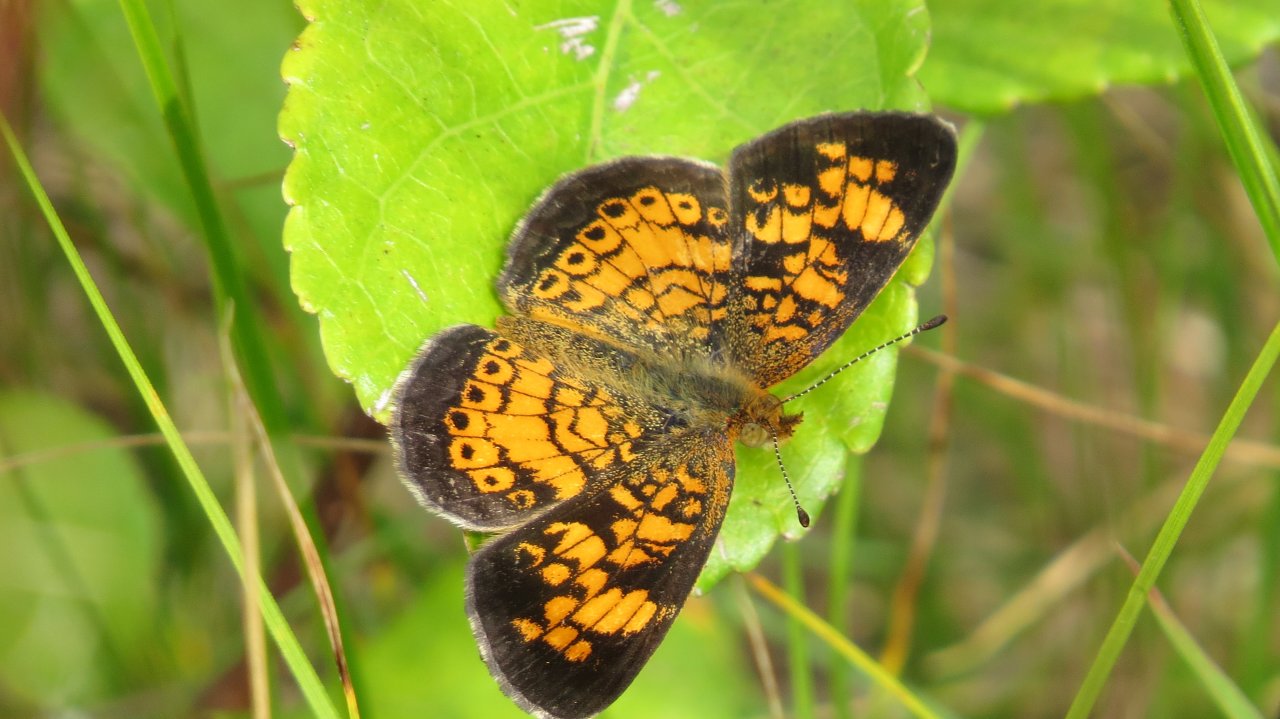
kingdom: Animalia
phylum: Arthropoda
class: Insecta
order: Lepidoptera
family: Nymphalidae
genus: Phyciodes
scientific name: Phyciodes tharos
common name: Pearl Crescent
